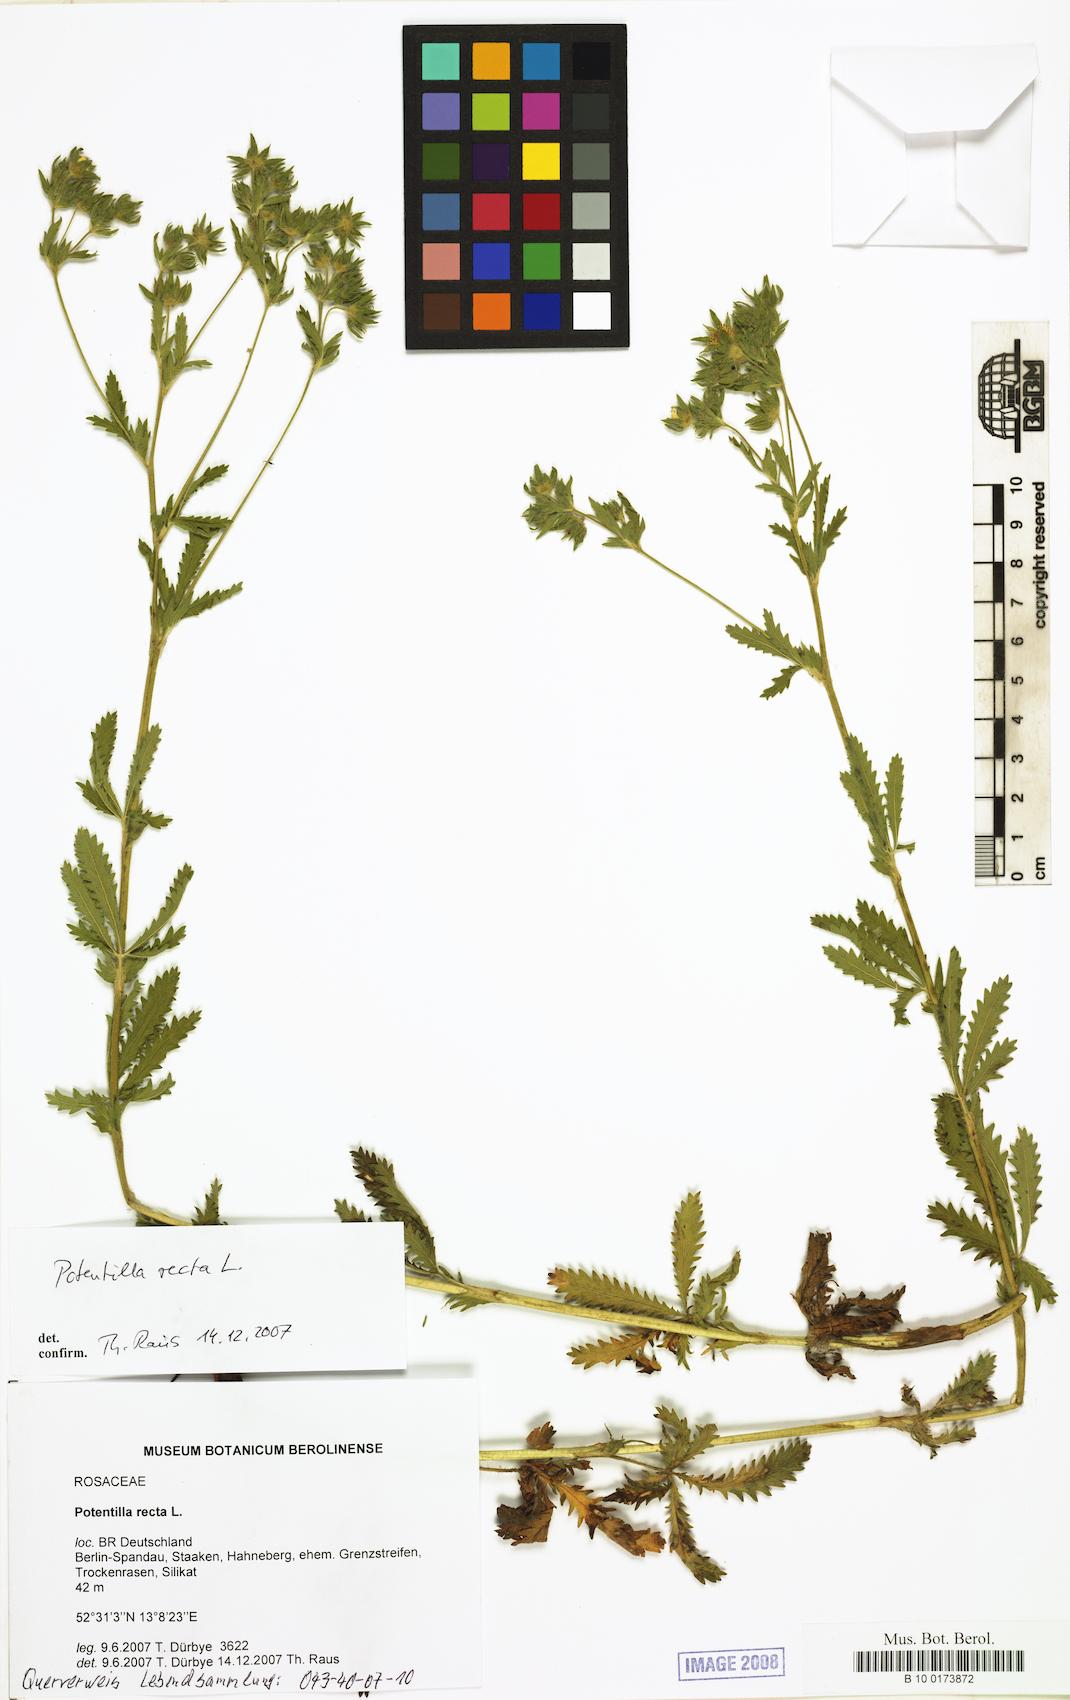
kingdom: Plantae
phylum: Tracheophyta
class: Magnoliopsida
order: Rosales
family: Rosaceae
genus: Potentilla
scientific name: Potentilla recta
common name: Sulphur cinquefoil
